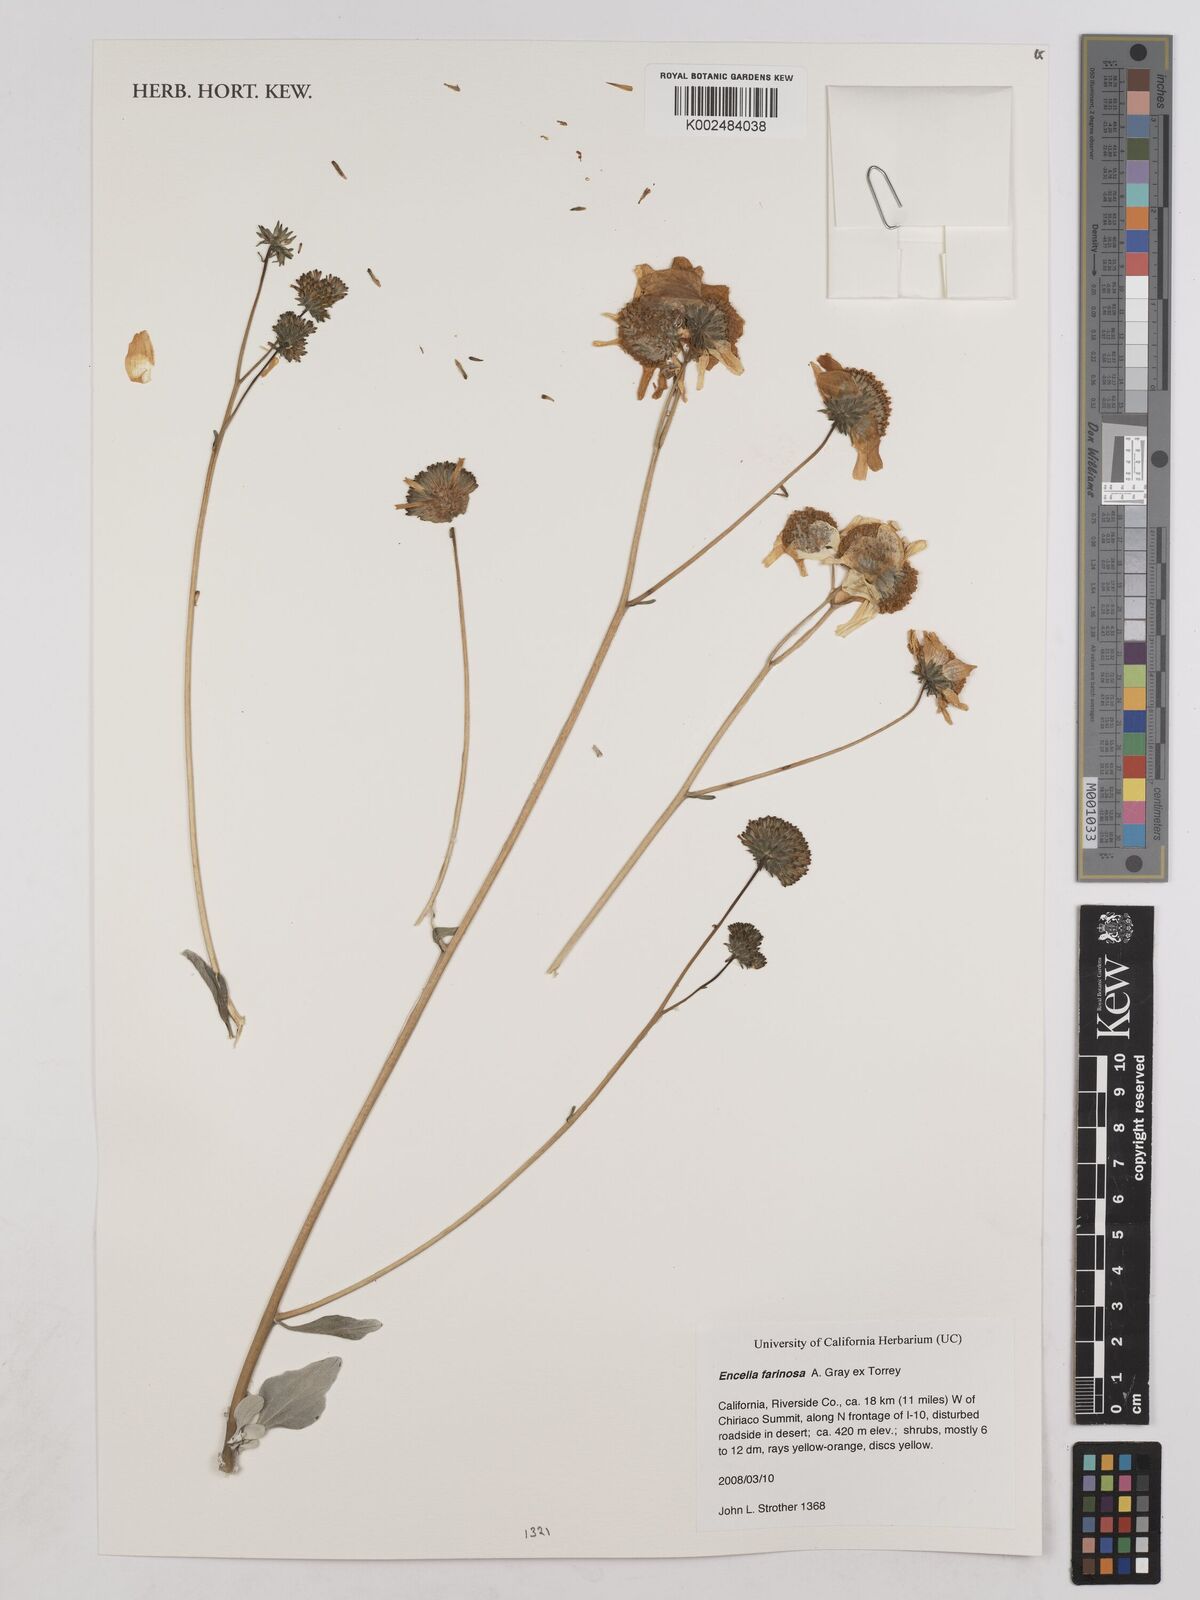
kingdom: Plantae
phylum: Tracheophyta
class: Magnoliopsida
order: Asterales
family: Asteraceae
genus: Encelia
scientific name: Encelia farinosa
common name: Brittlebush
